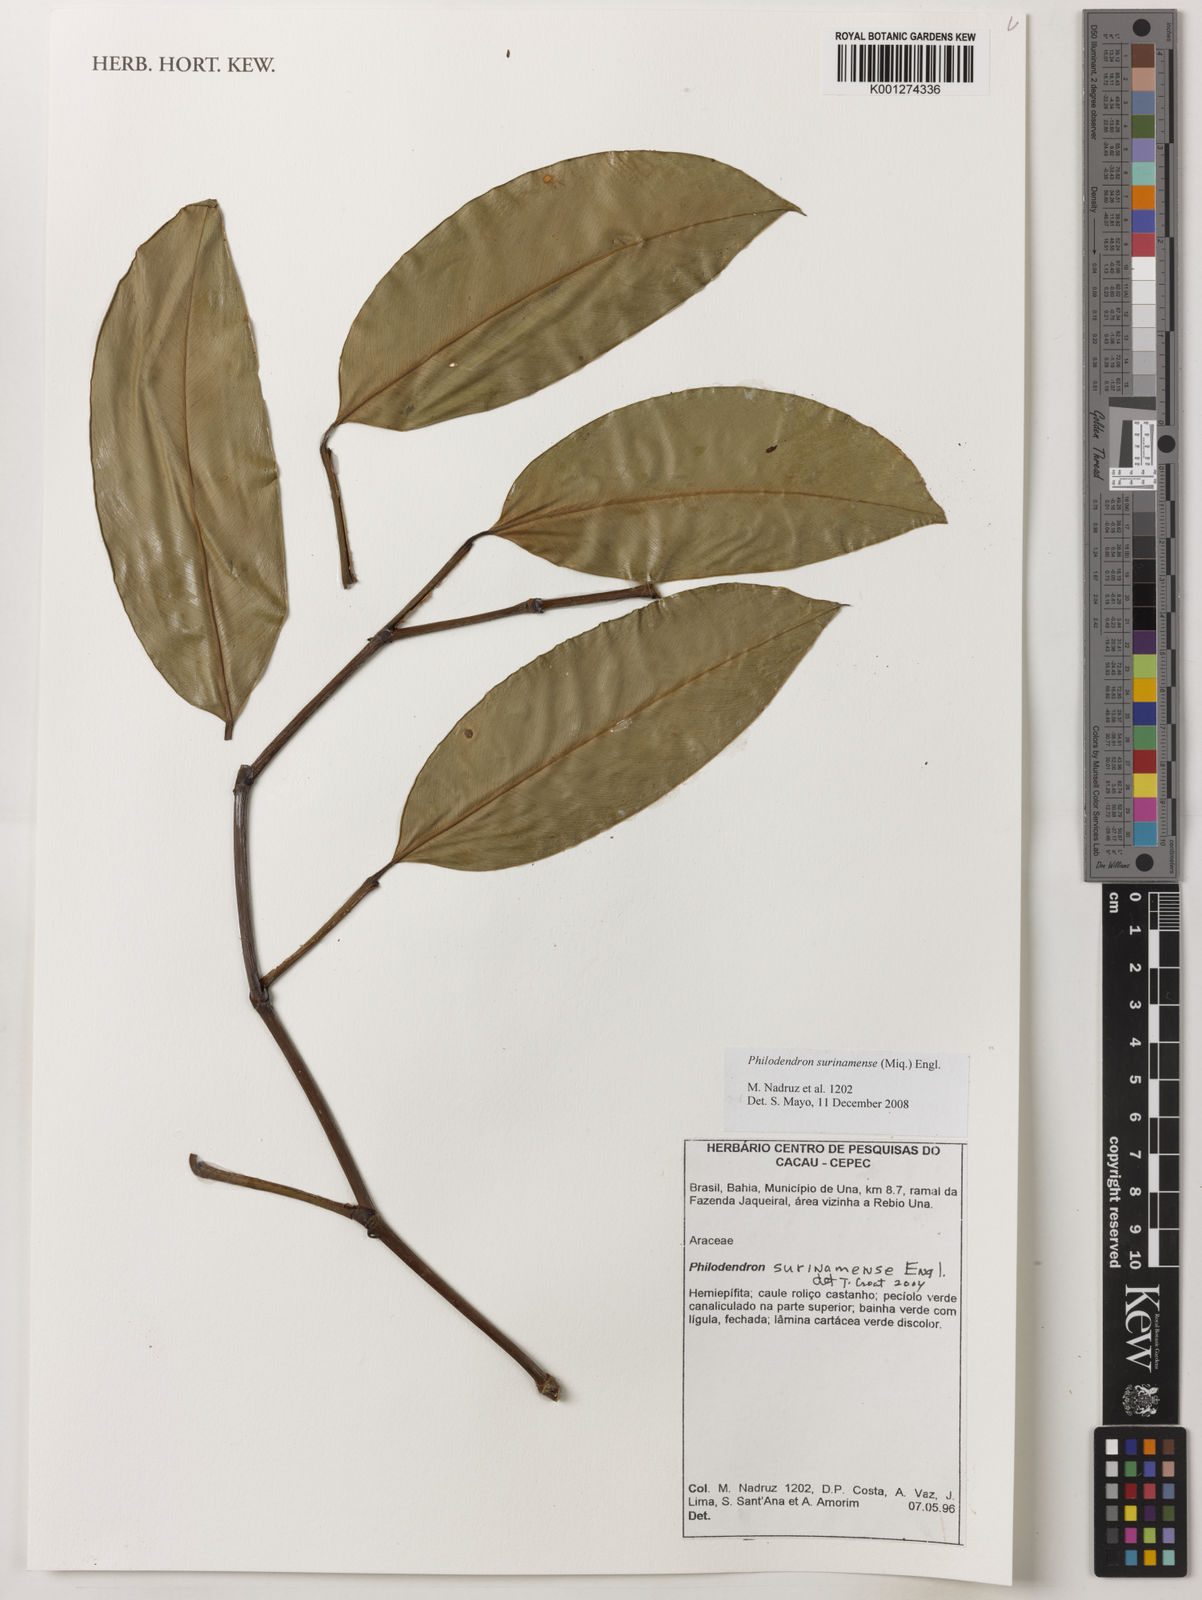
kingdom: Plantae
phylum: Tracheophyta
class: Liliopsida
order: Alismatales
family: Araceae
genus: Philodendron
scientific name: Philodendron surinamense
